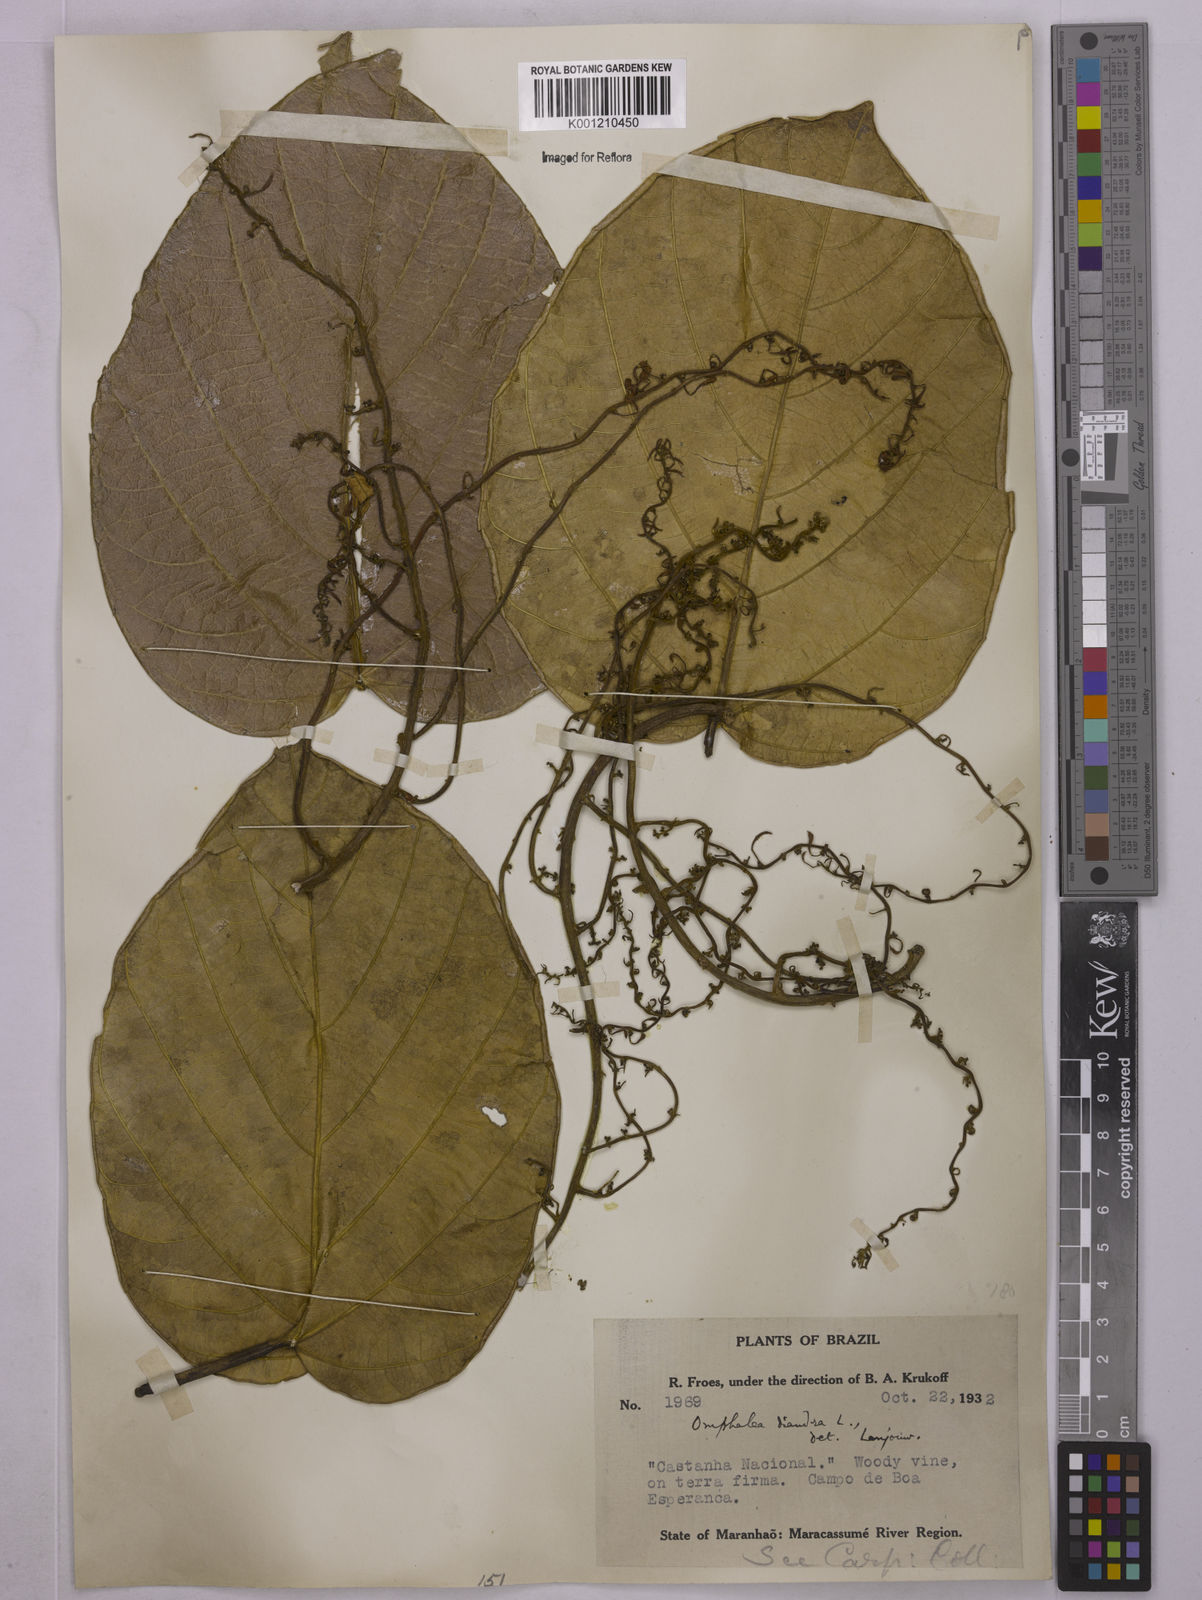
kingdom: Plantae
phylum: Tracheophyta
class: Magnoliopsida
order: Malpighiales
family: Euphorbiaceae
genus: Omphalea
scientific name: Omphalea diandra
